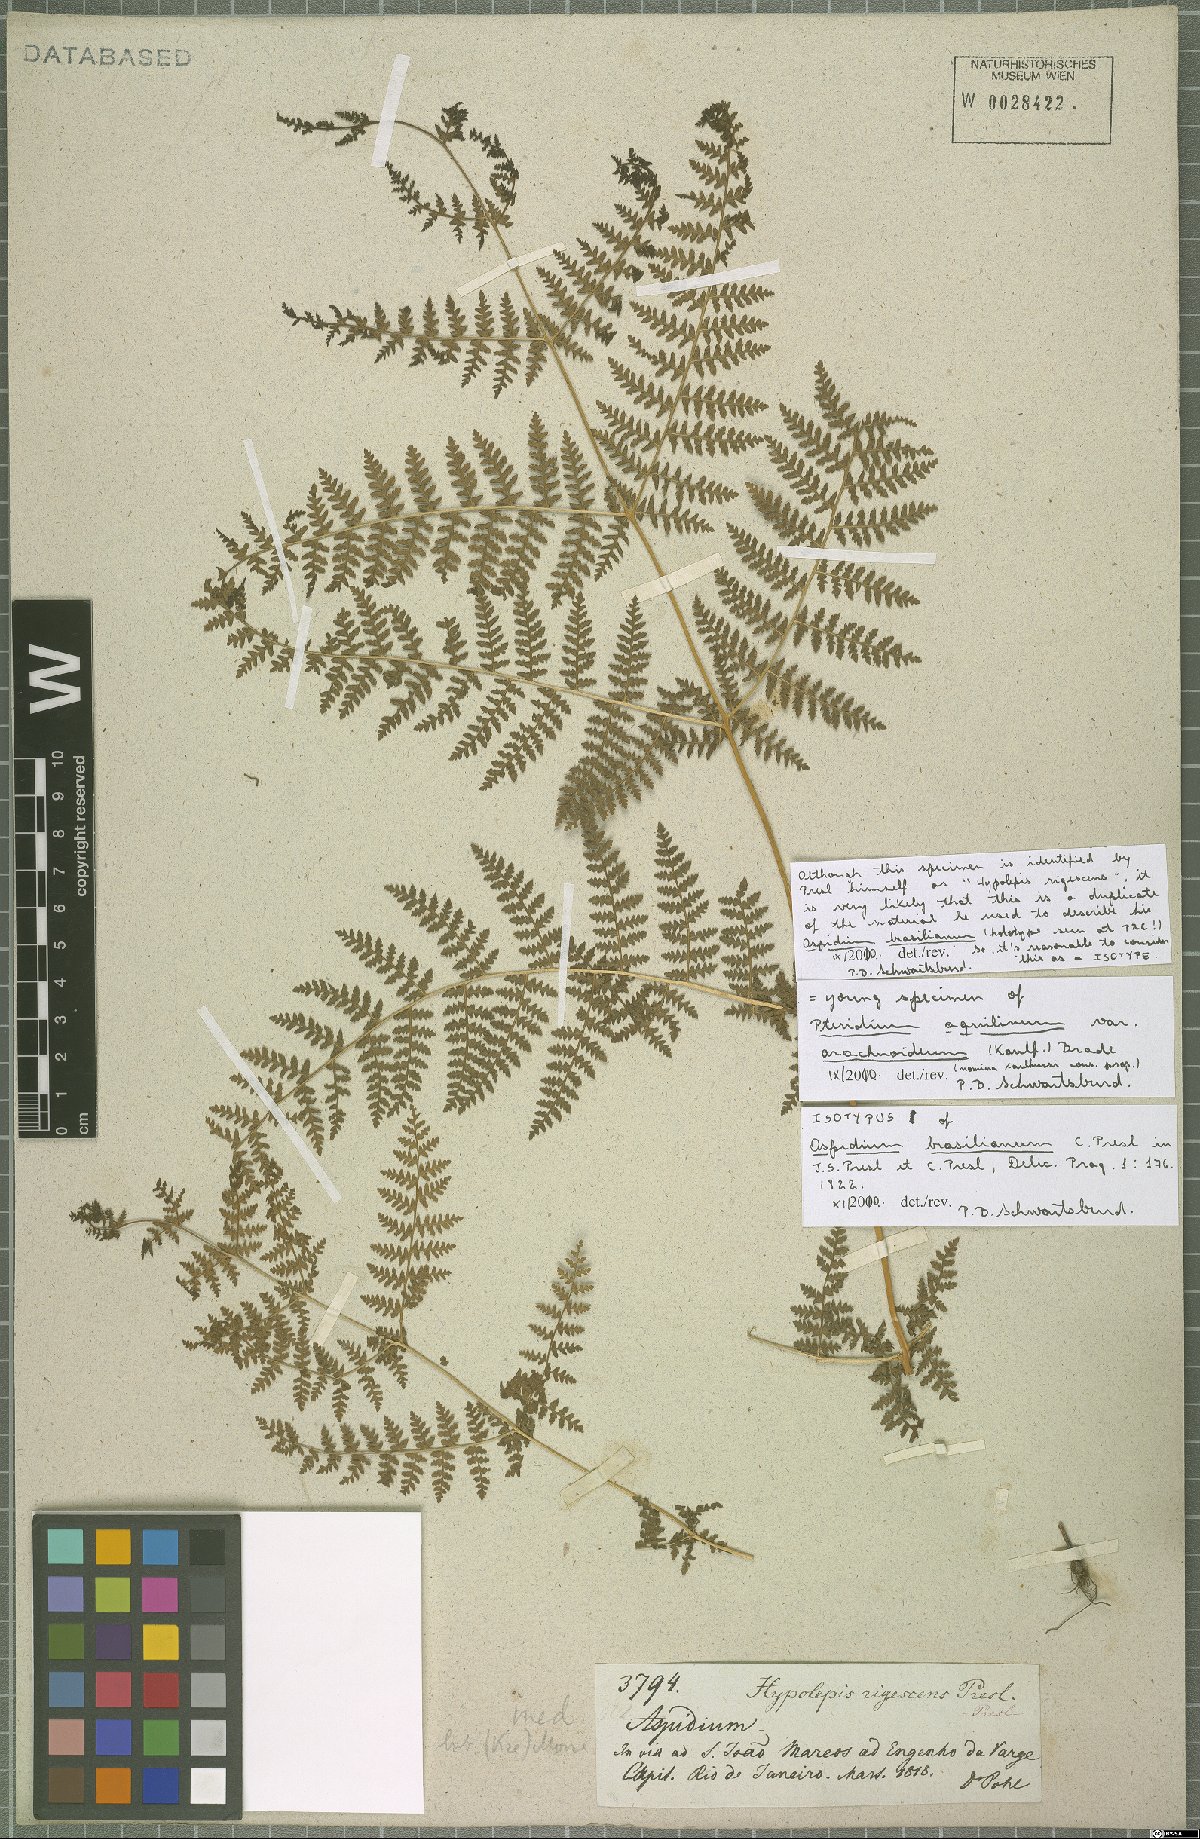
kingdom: Plantae
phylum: Tracheophyta
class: Polypodiopsida
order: Polypodiales
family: Dennstaedtiaceae
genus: Pteridium
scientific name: Pteridium esculentum
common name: Bracken fern
